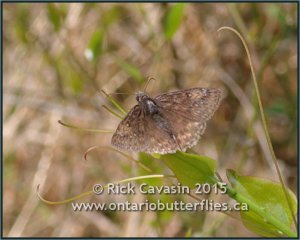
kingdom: Animalia
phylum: Arthropoda
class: Insecta
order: Lepidoptera
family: Hesperiidae
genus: Erynnis
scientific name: Erynnis
